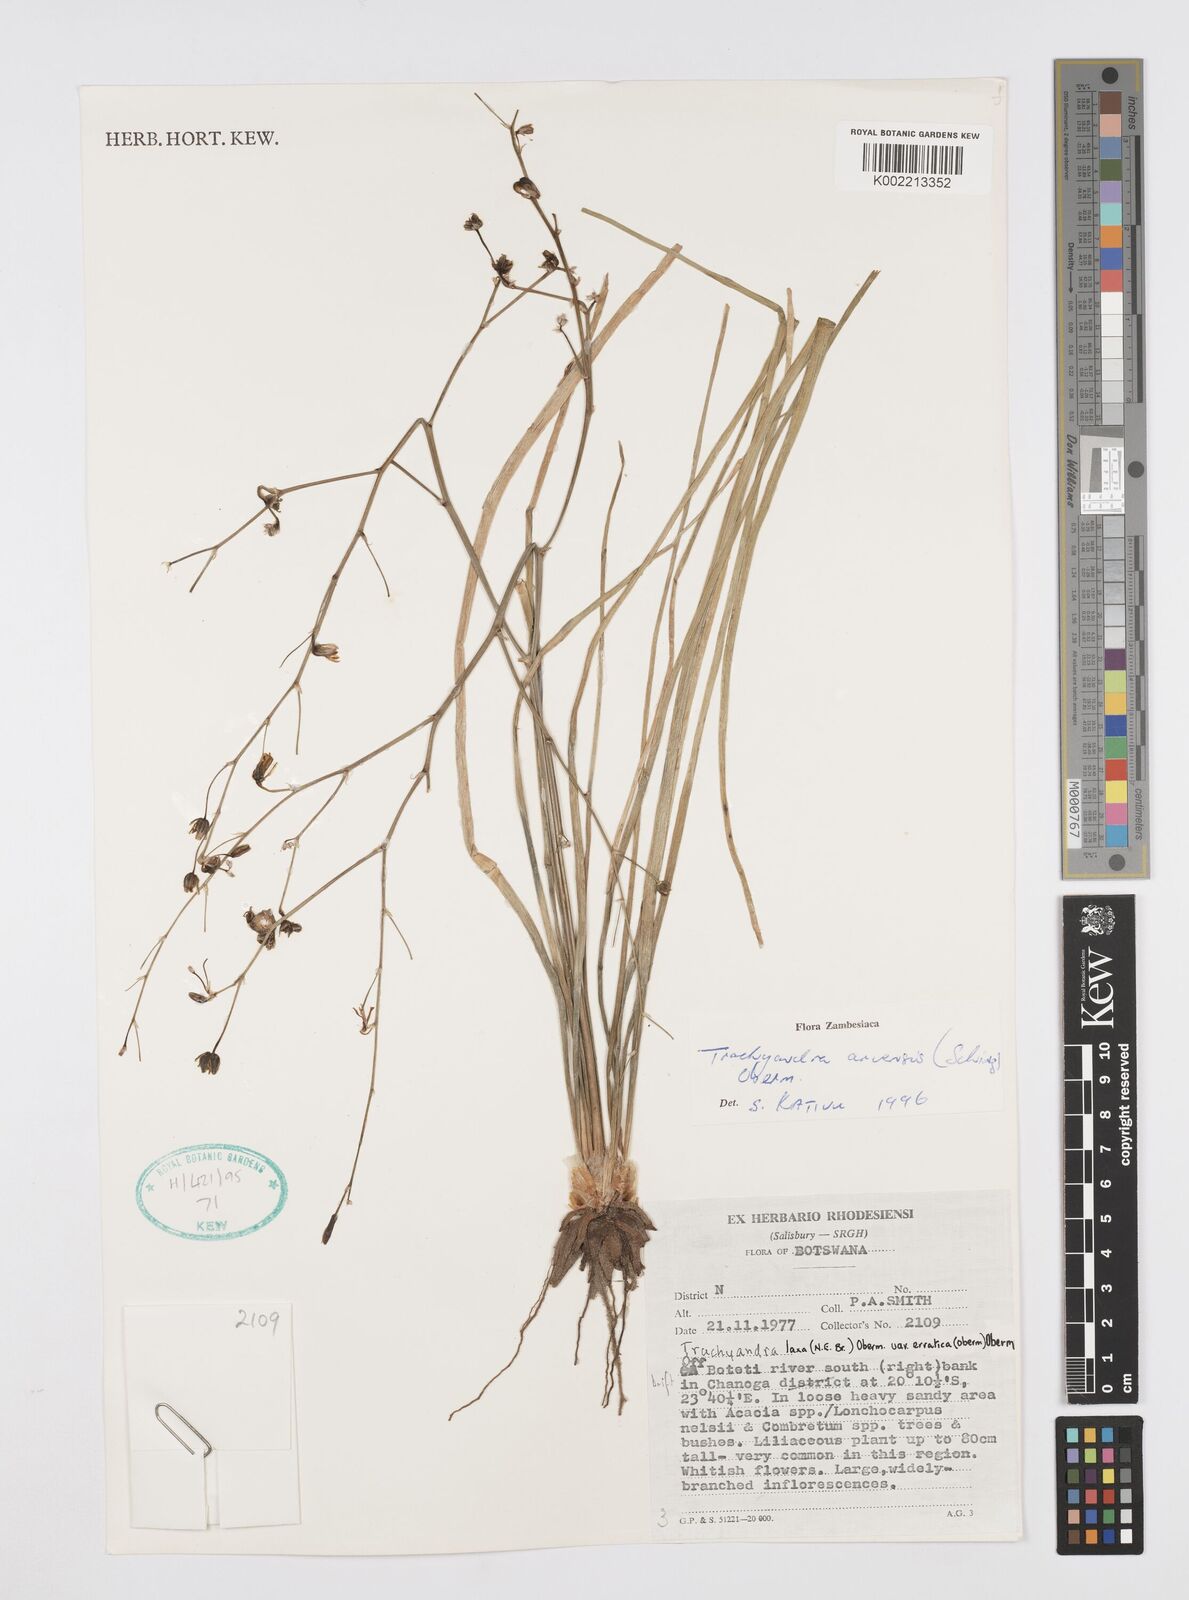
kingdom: Plantae
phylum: Tracheophyta
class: Liliopsida
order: Asparagales
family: Asphodelaceae
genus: Trachyandra
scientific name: Trachyandra arvensis
